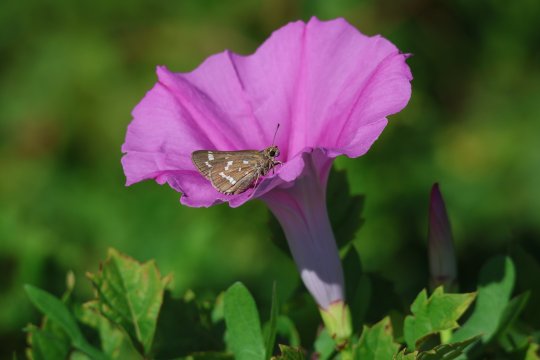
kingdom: Animalia
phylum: Arthropoda
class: Insecta
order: Lepidoptera
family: Hesperiidae
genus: Atrytonopsis
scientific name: Atrytonopsis quinteri
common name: Crystal Skipper
